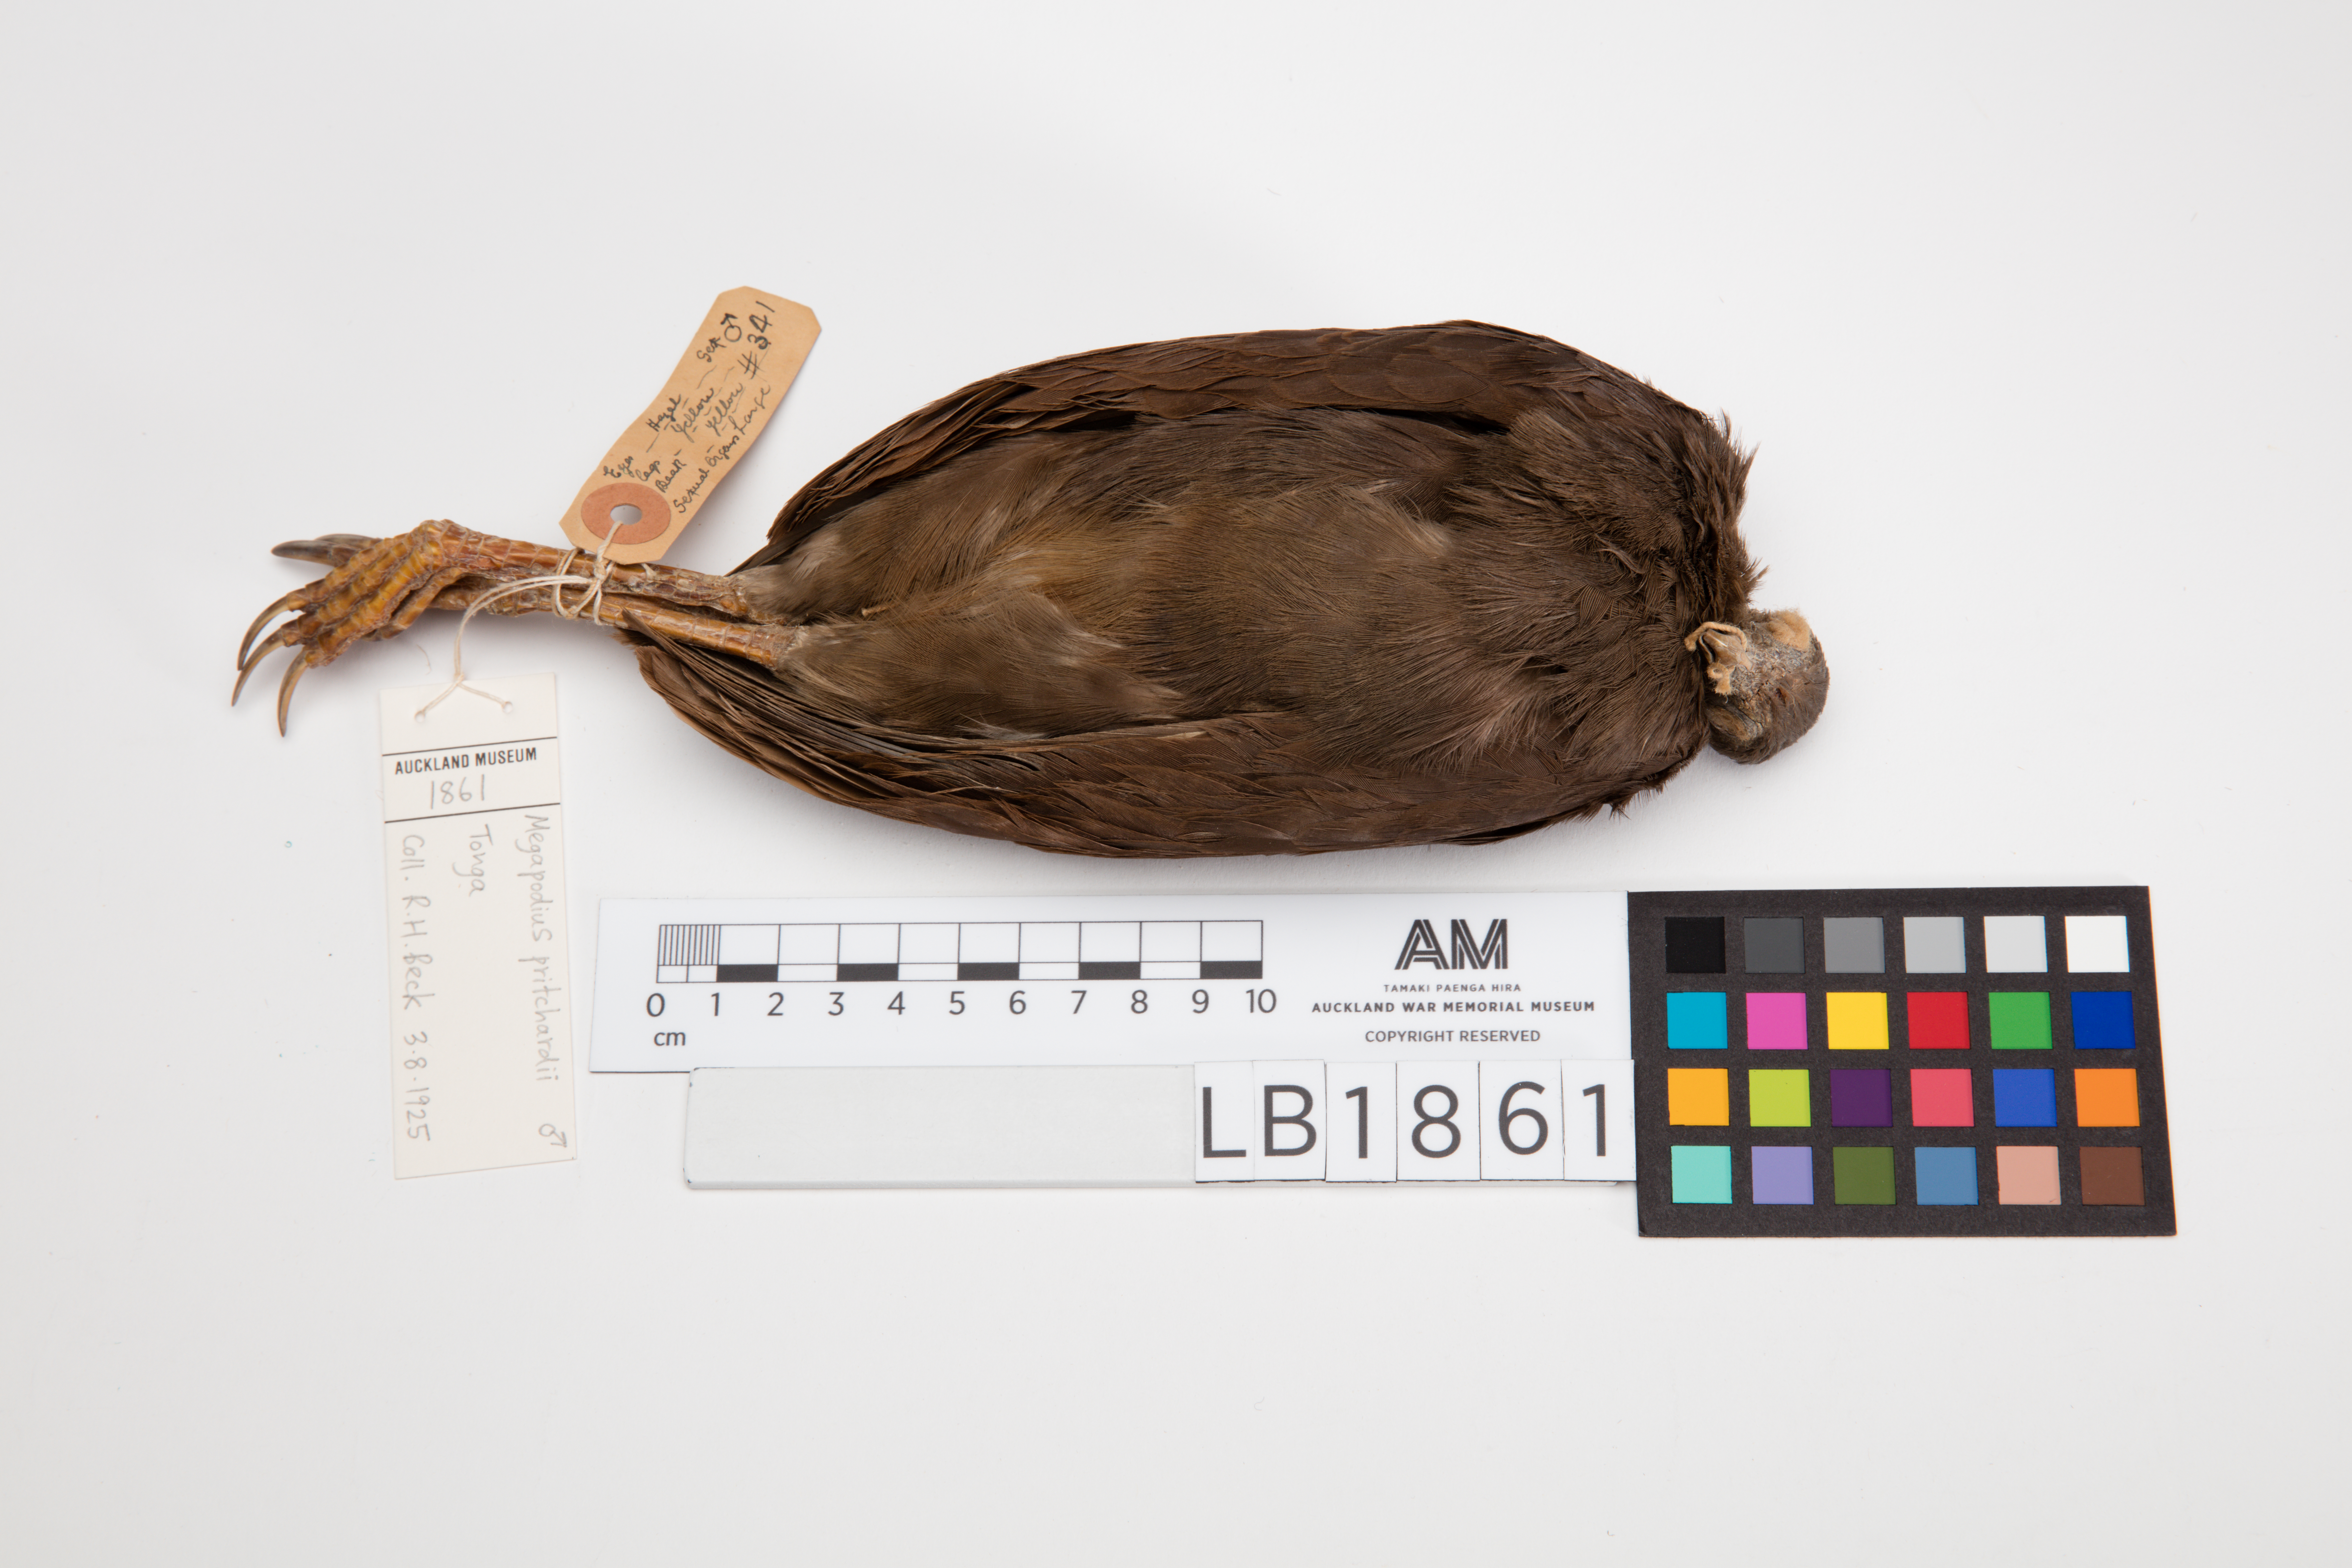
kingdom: Animalia
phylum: Chordata
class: Aves
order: Galliformes
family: Megapodiidae
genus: Megapodius
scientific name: Megapodius pritchardii
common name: Tongan megapode
